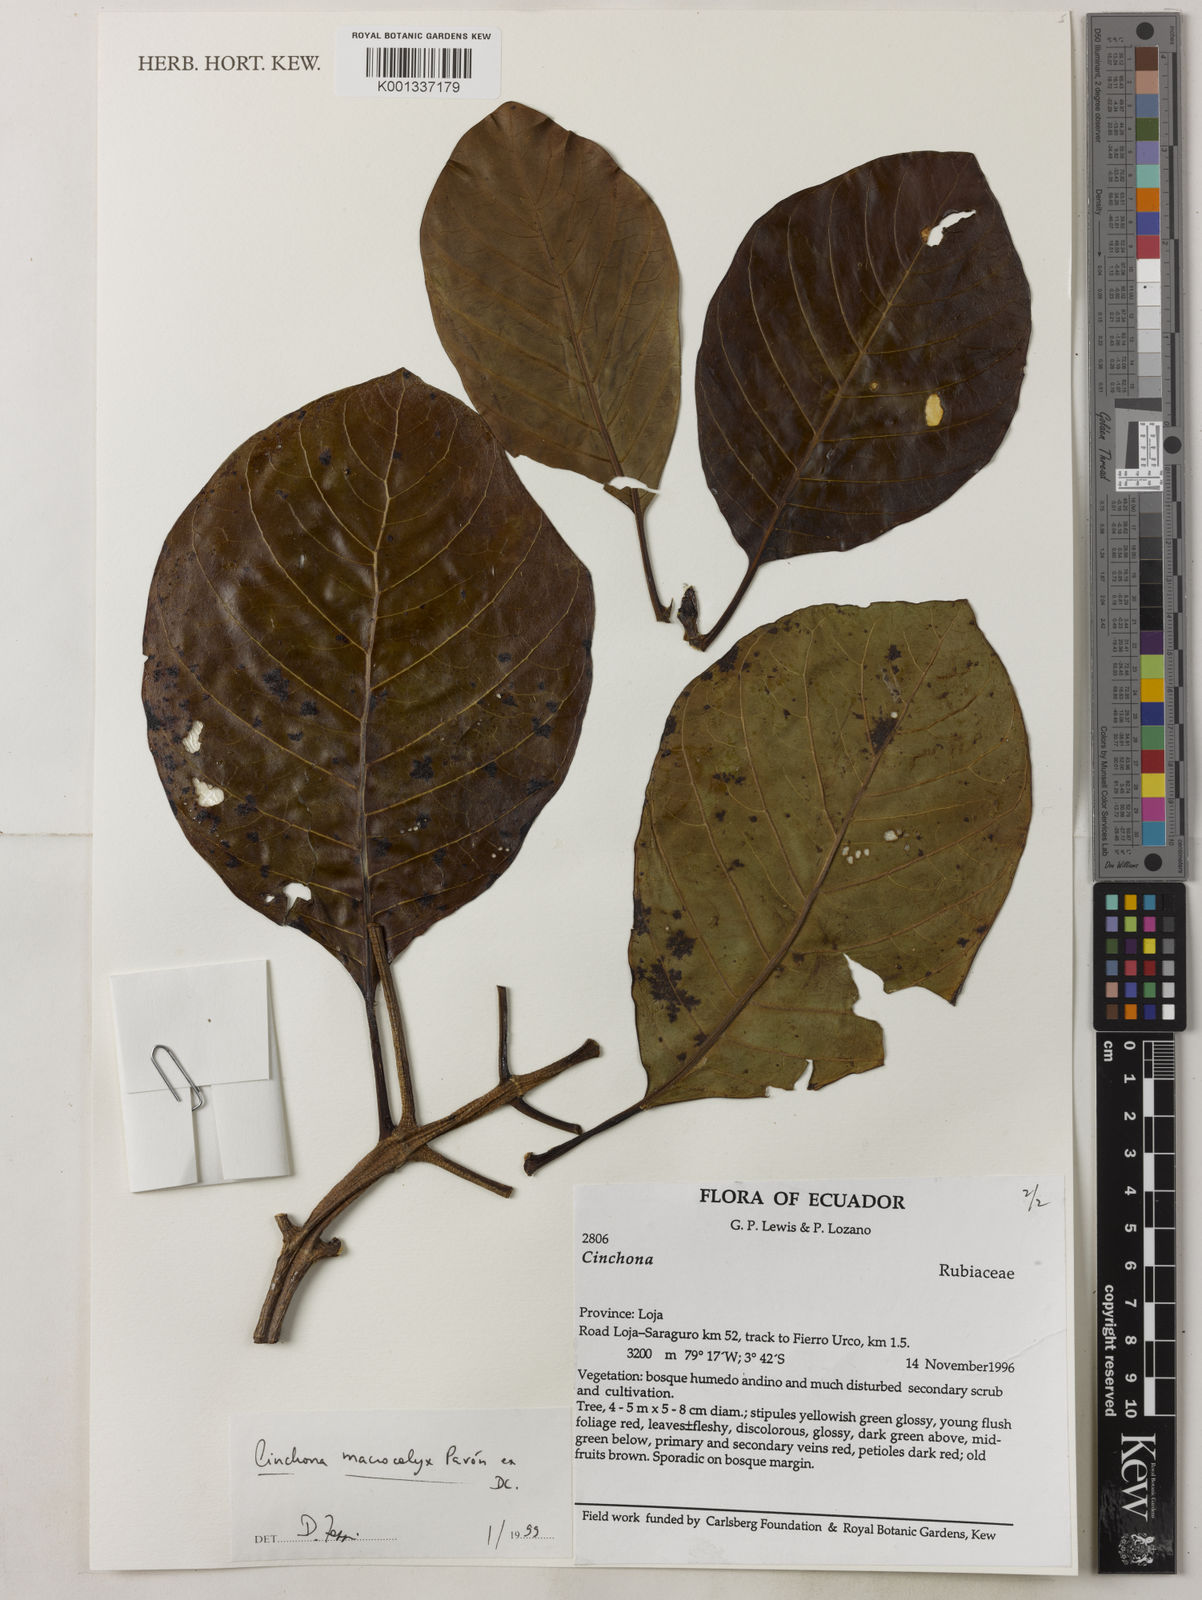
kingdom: Plantae
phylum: Tracheophyta
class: Magnoliopsida
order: Gentianales
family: Rubiaceae
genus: Cinchona
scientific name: Cinchona macrocalyx
